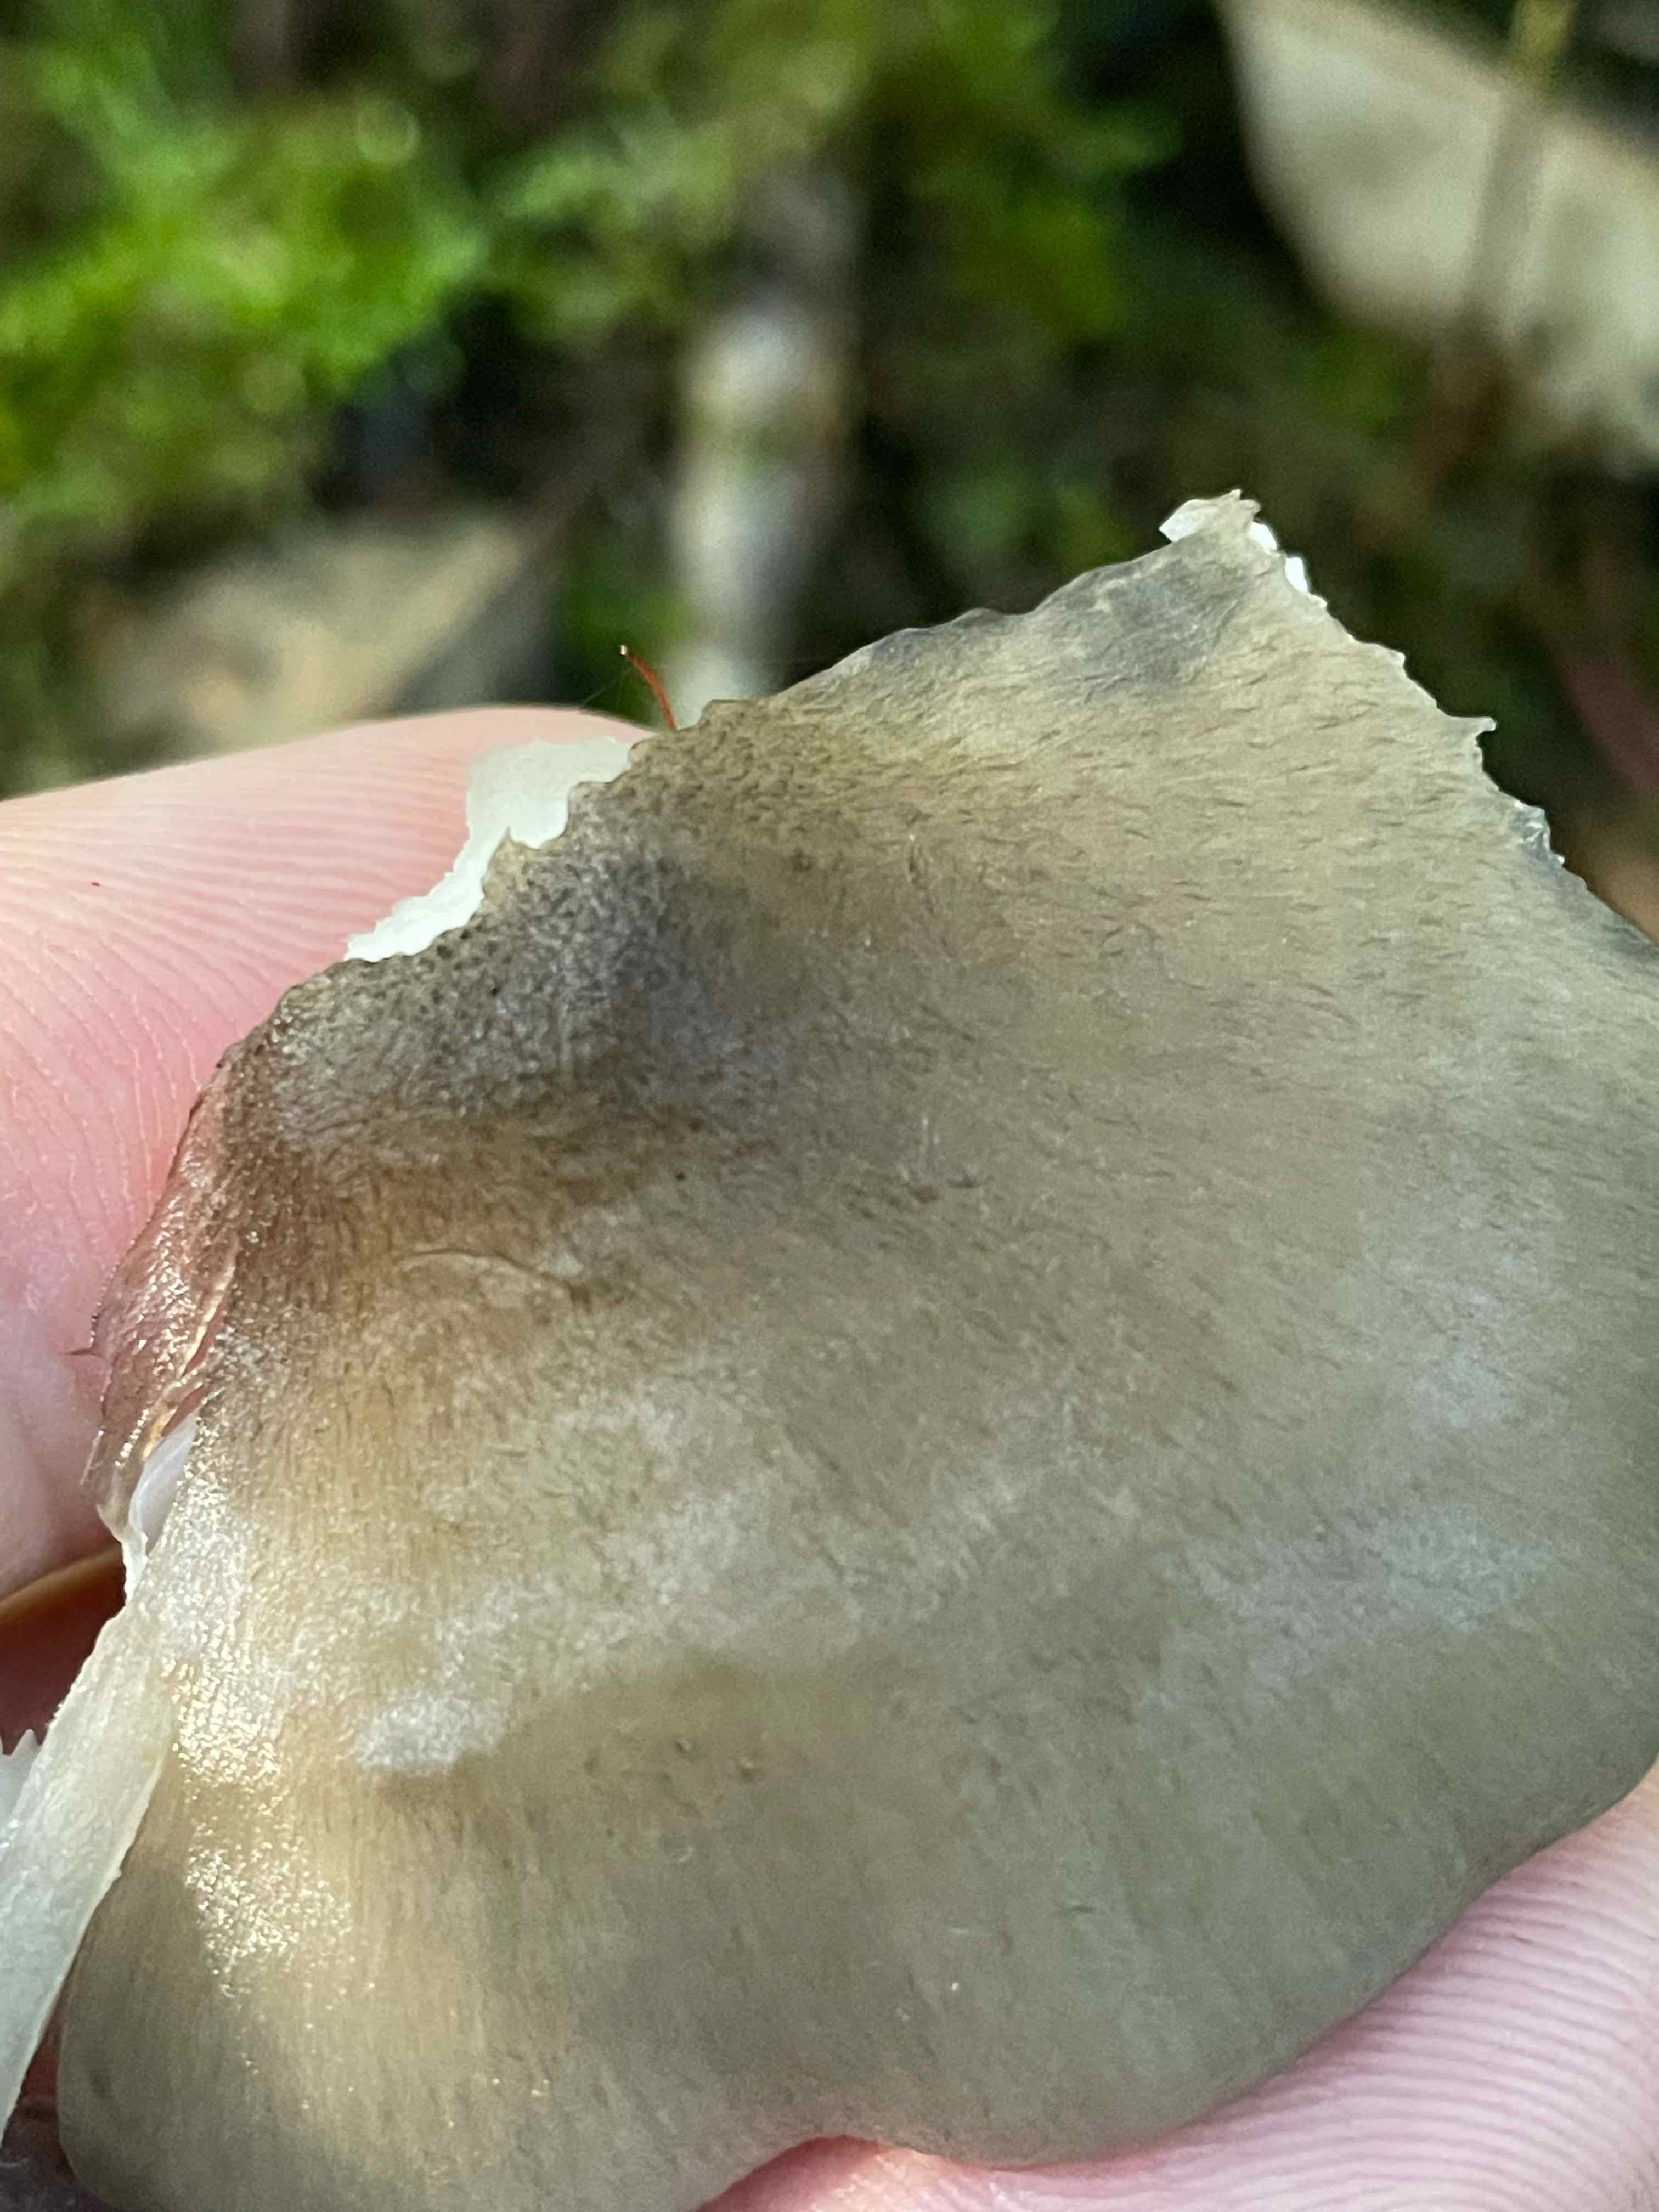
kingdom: Fungi
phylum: Basidiomycota
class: Agaricomycetes
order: Agaricales
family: Pluteaceae
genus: Pluteus
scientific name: Pluteus salicinus
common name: stiv skærmhat
